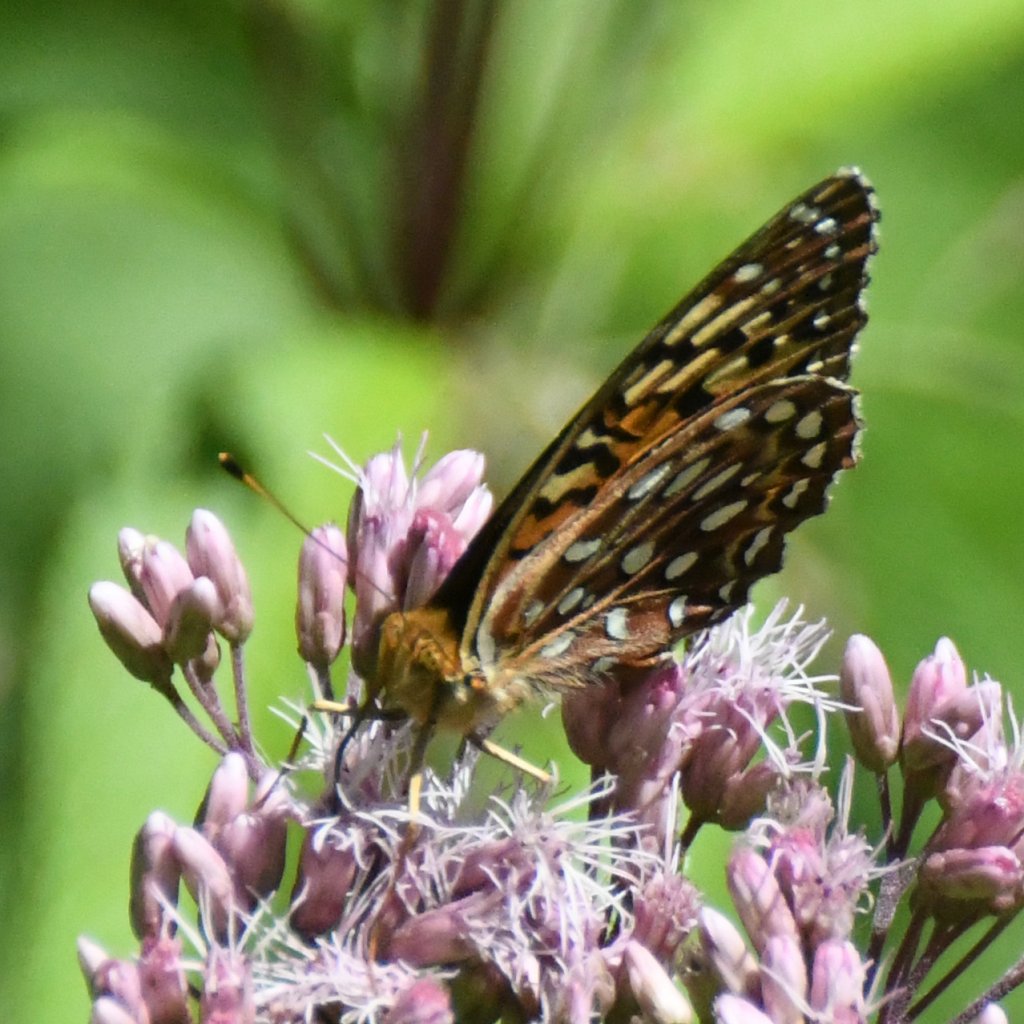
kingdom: Animalia
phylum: Arthropoda
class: Insecta
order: Lepidoptera
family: Nymphalidae
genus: Speyeria
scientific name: Speyeria aphrodite
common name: Aphrodite Fritillary
